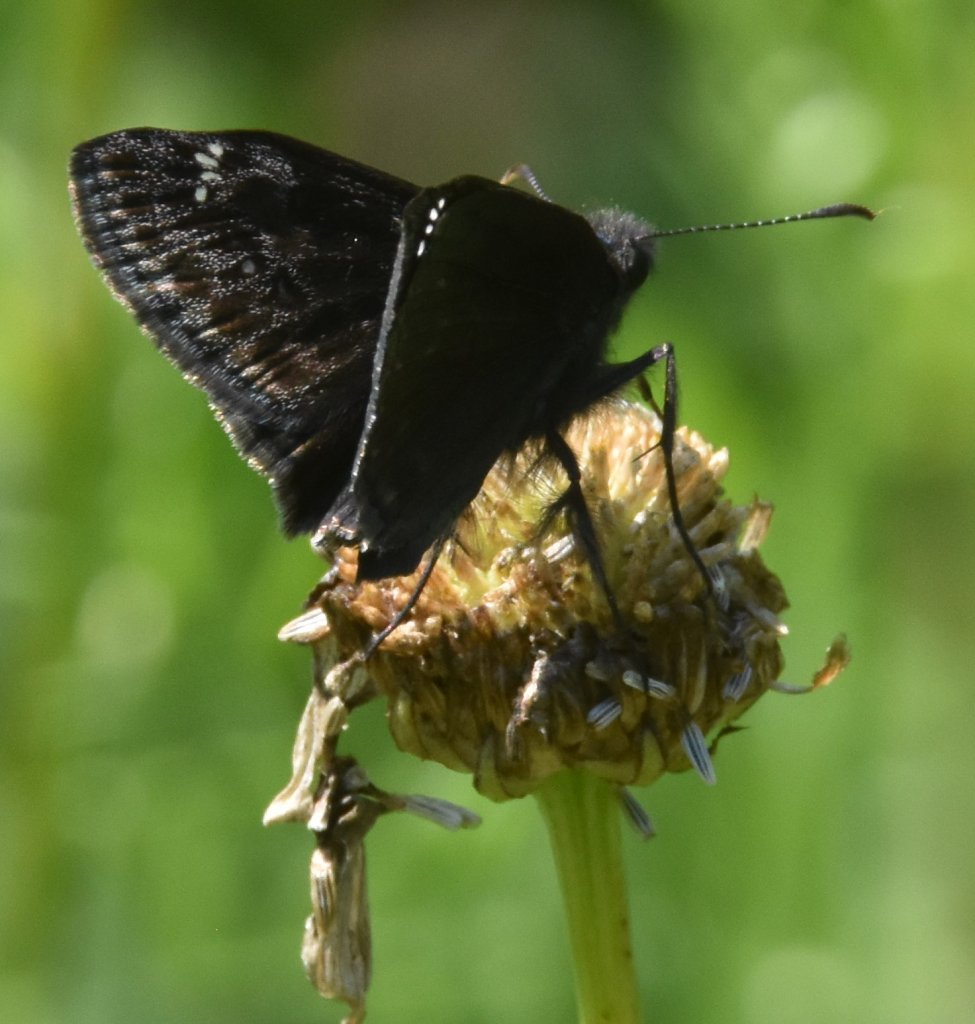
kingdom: Animalia
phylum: Arthropoda
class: Insecta
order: Lepidoptera
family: Hesperiidae
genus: Gesta
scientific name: Gesta
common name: Wild Indigo Duskywing
